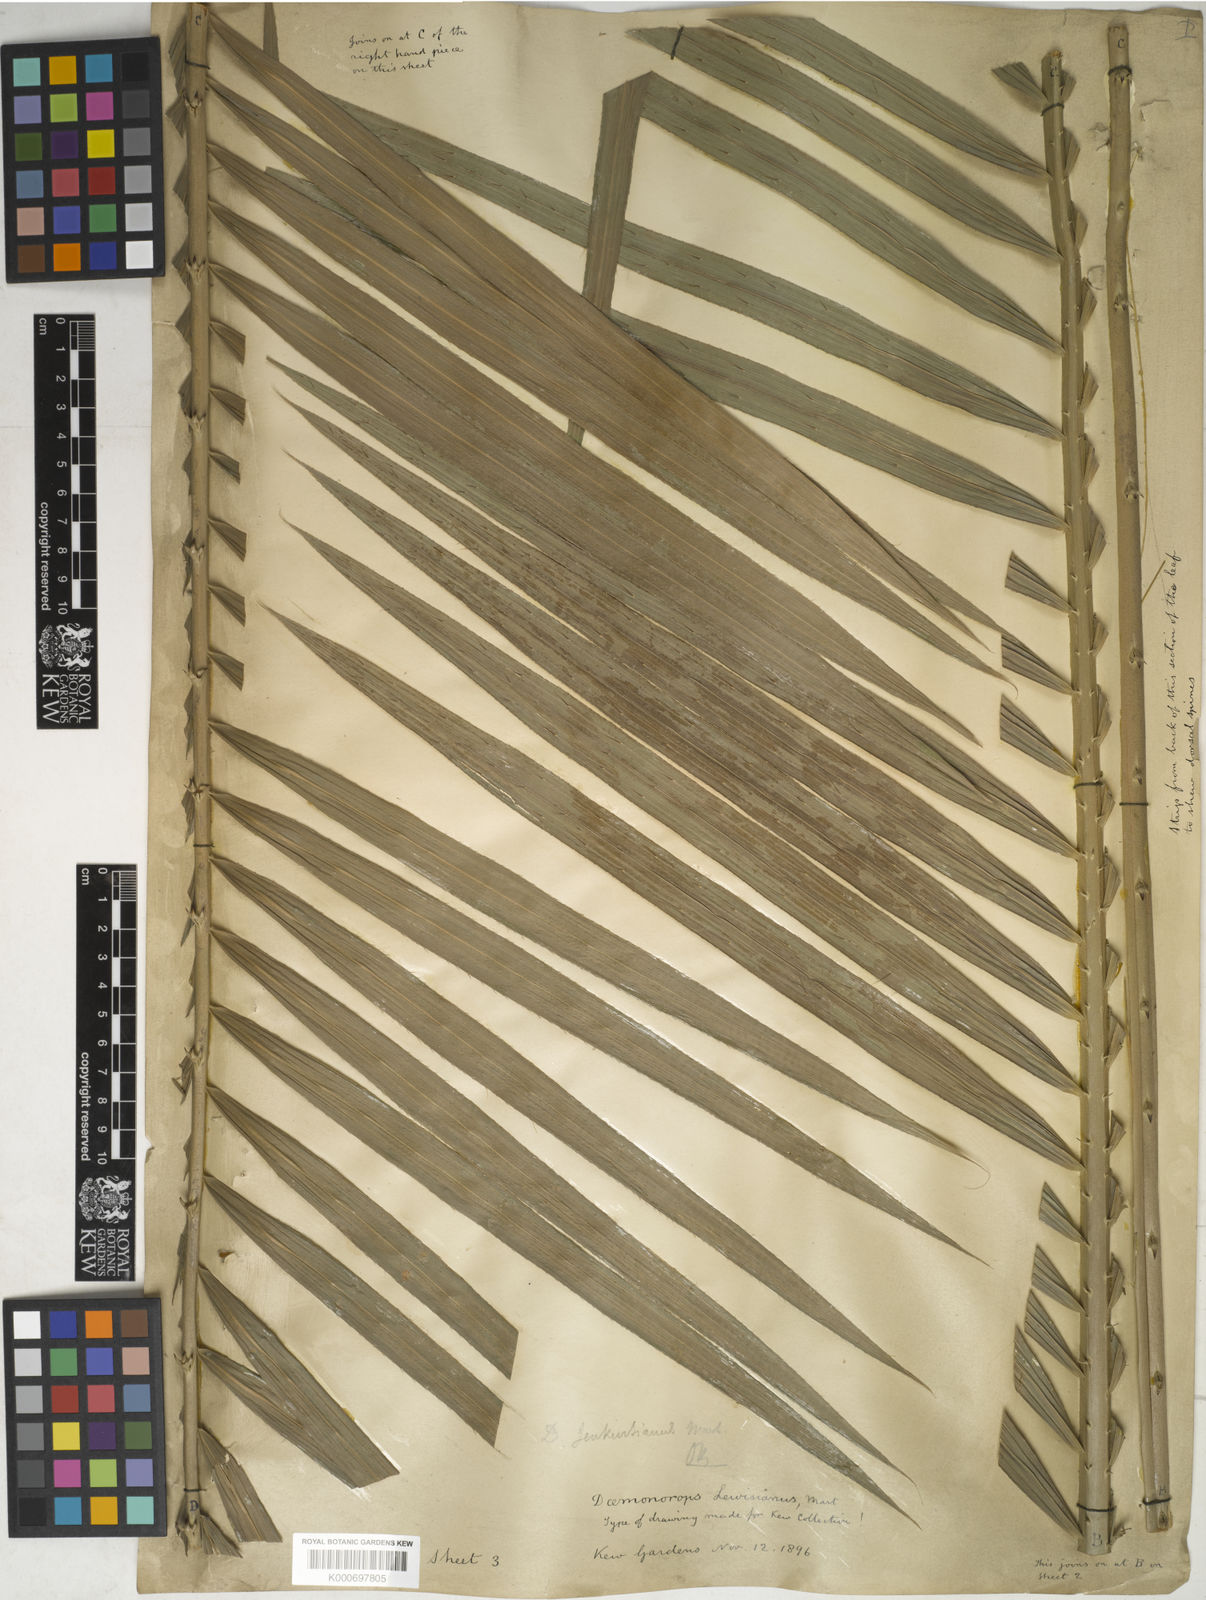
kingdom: Plantae
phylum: Tracheophyta
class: Liliopsida
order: Arecales
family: Arecaceae
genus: Calamus
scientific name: Calamus melanochaetes
